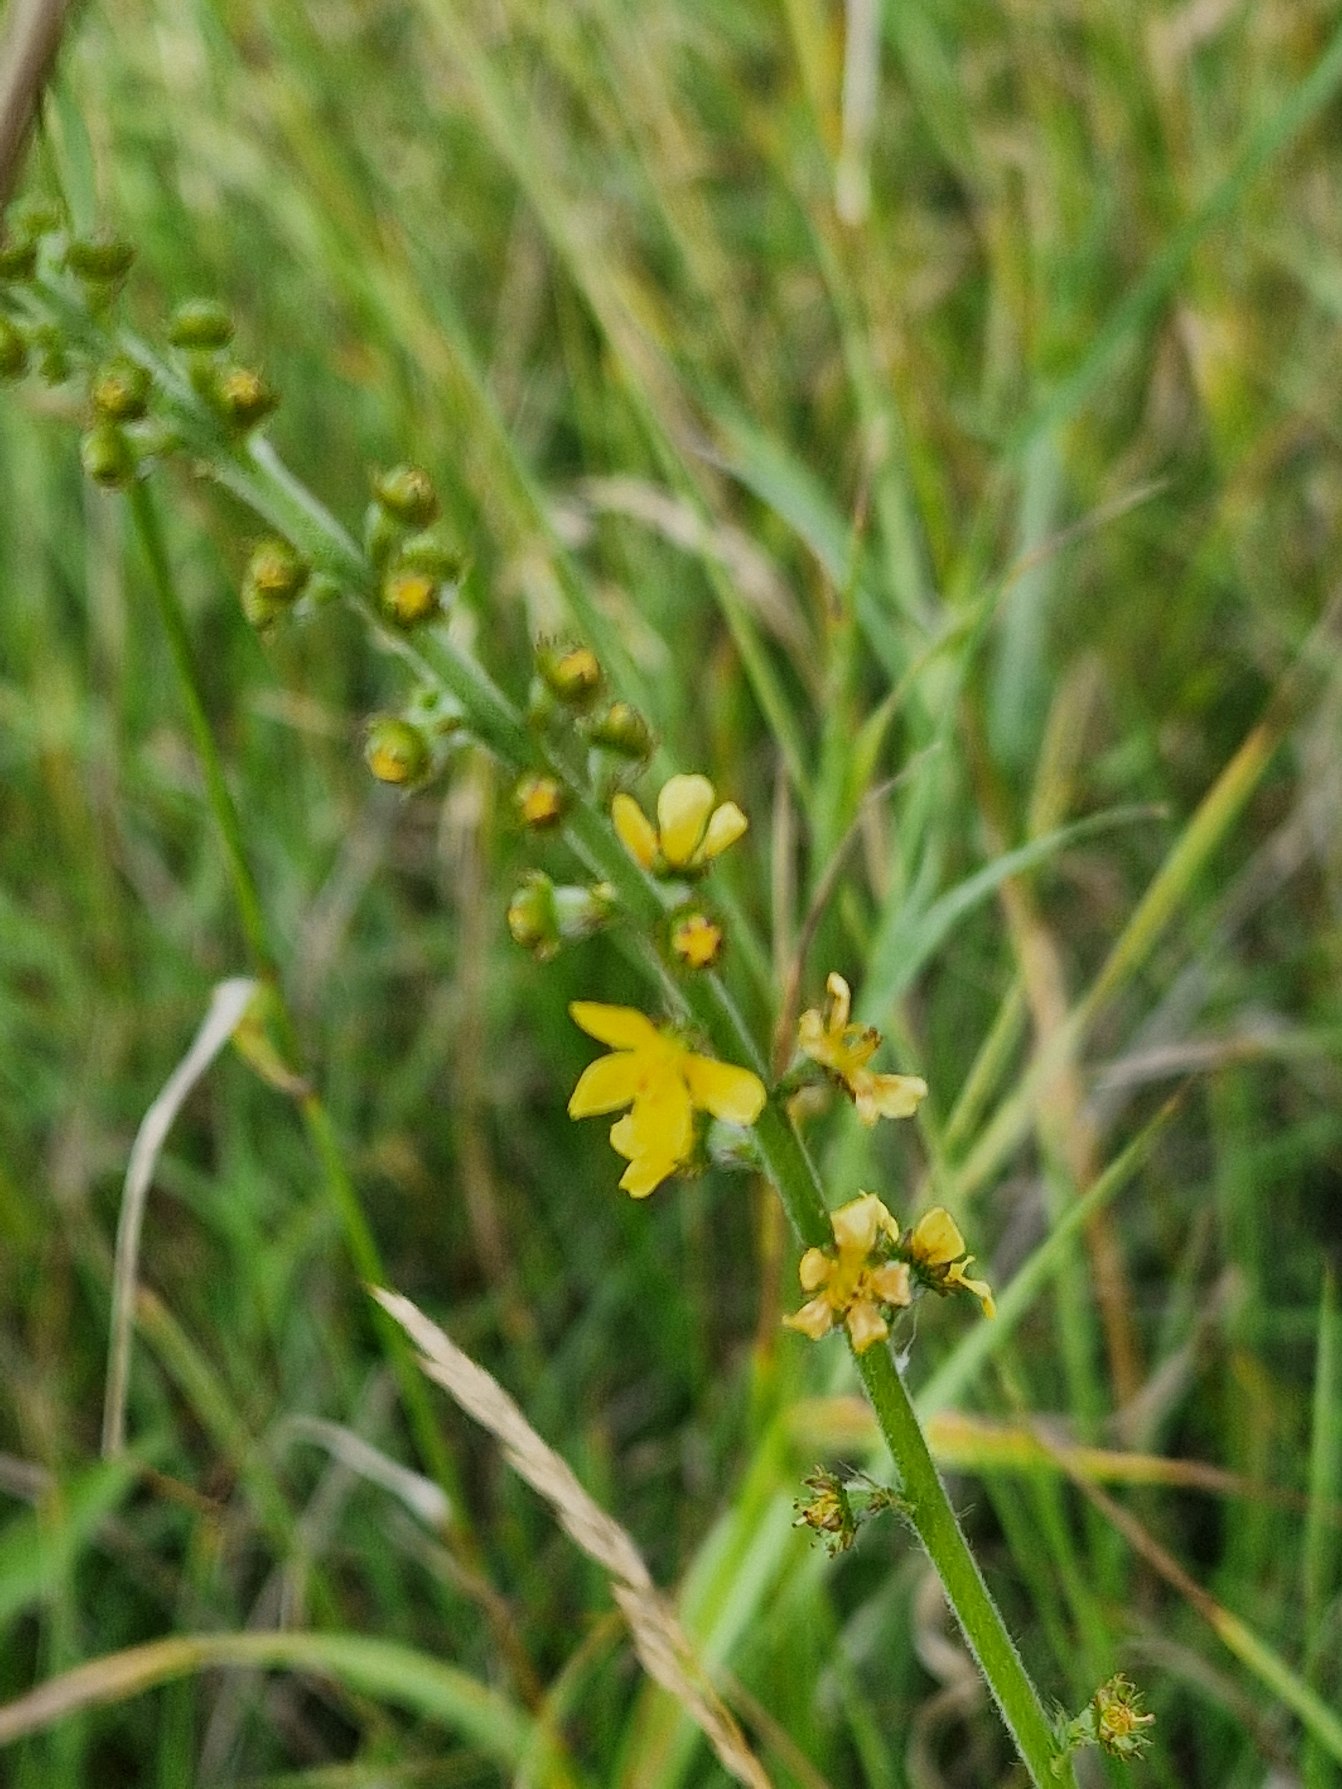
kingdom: Plantae
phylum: Tracheophyta
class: Magnoliopsida
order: Rosales
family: Rosaceae
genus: Agrimonia
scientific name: Agrimonia eupatoria
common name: Almindelig agermåne
